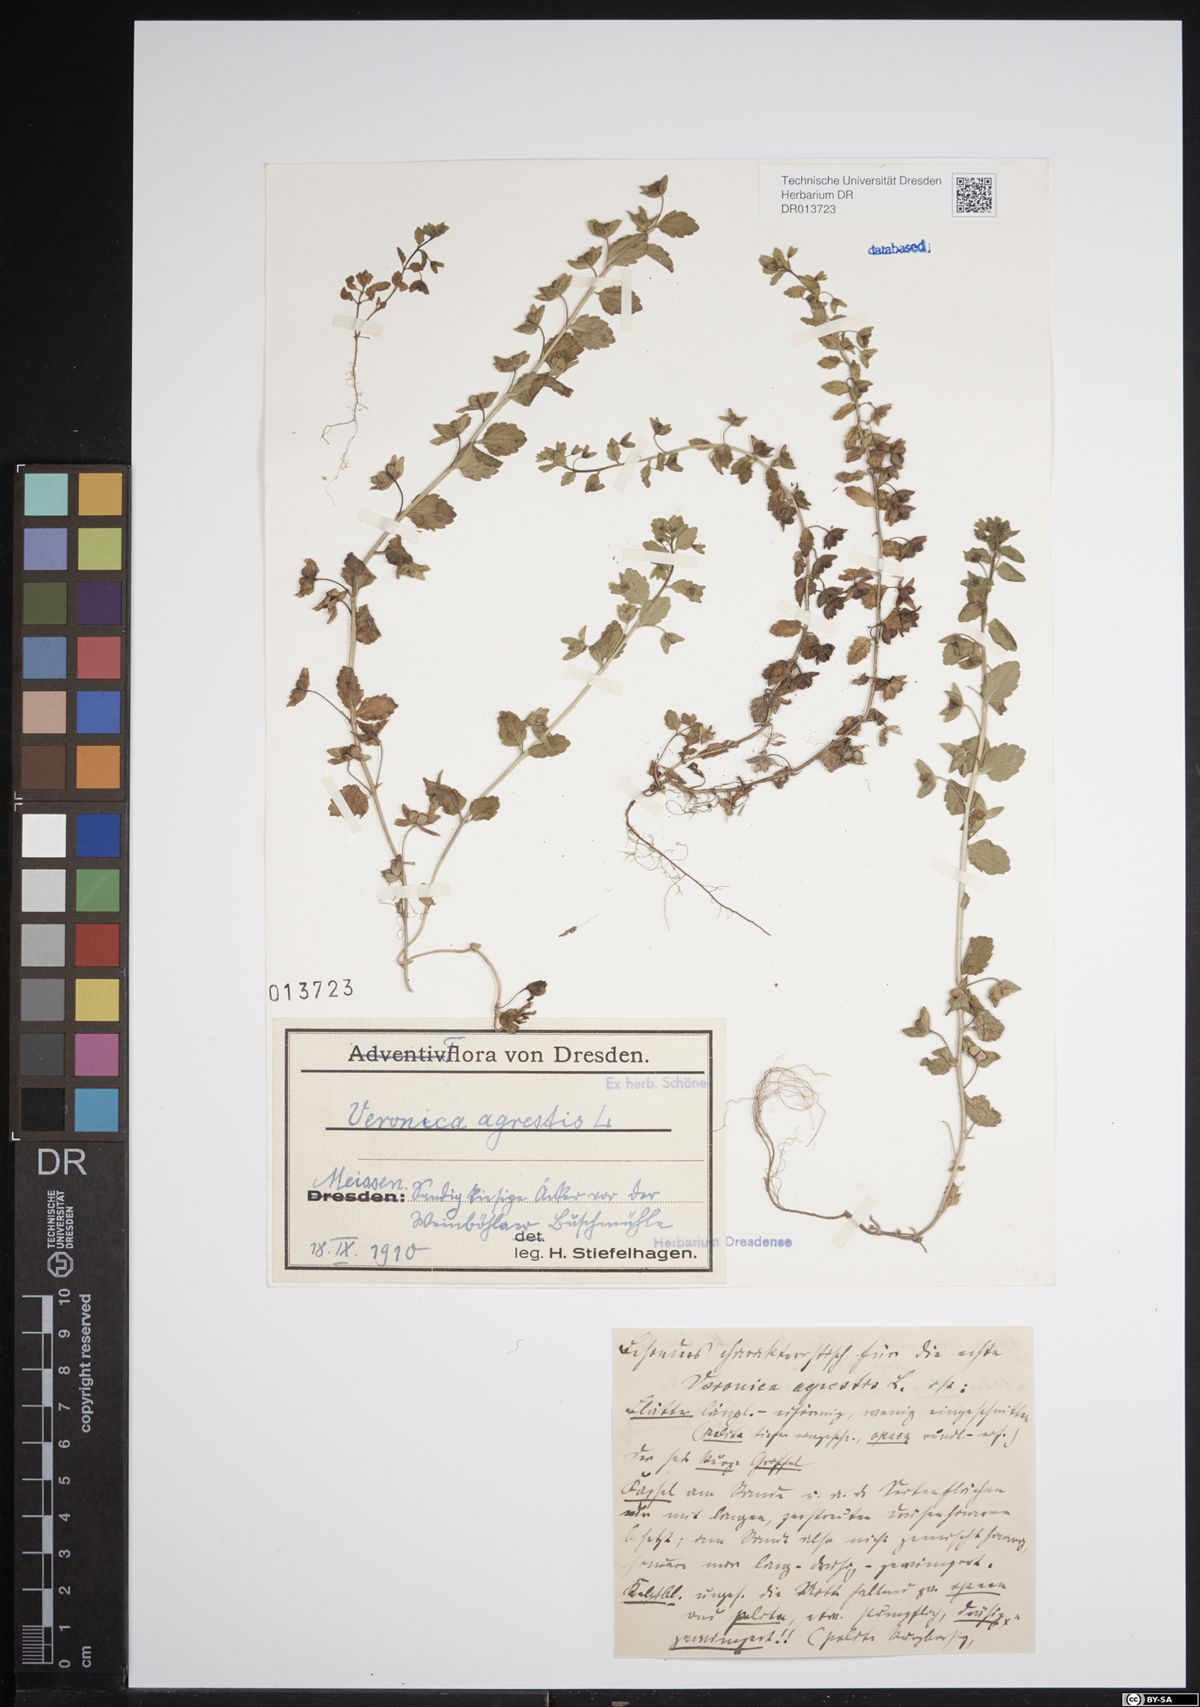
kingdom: Plantae
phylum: Tracheophyta
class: Magnoliopsida
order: Lamiales
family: Plantaginaceae
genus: Veronica
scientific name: Veronica agrestis
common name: Green field-speedwell
